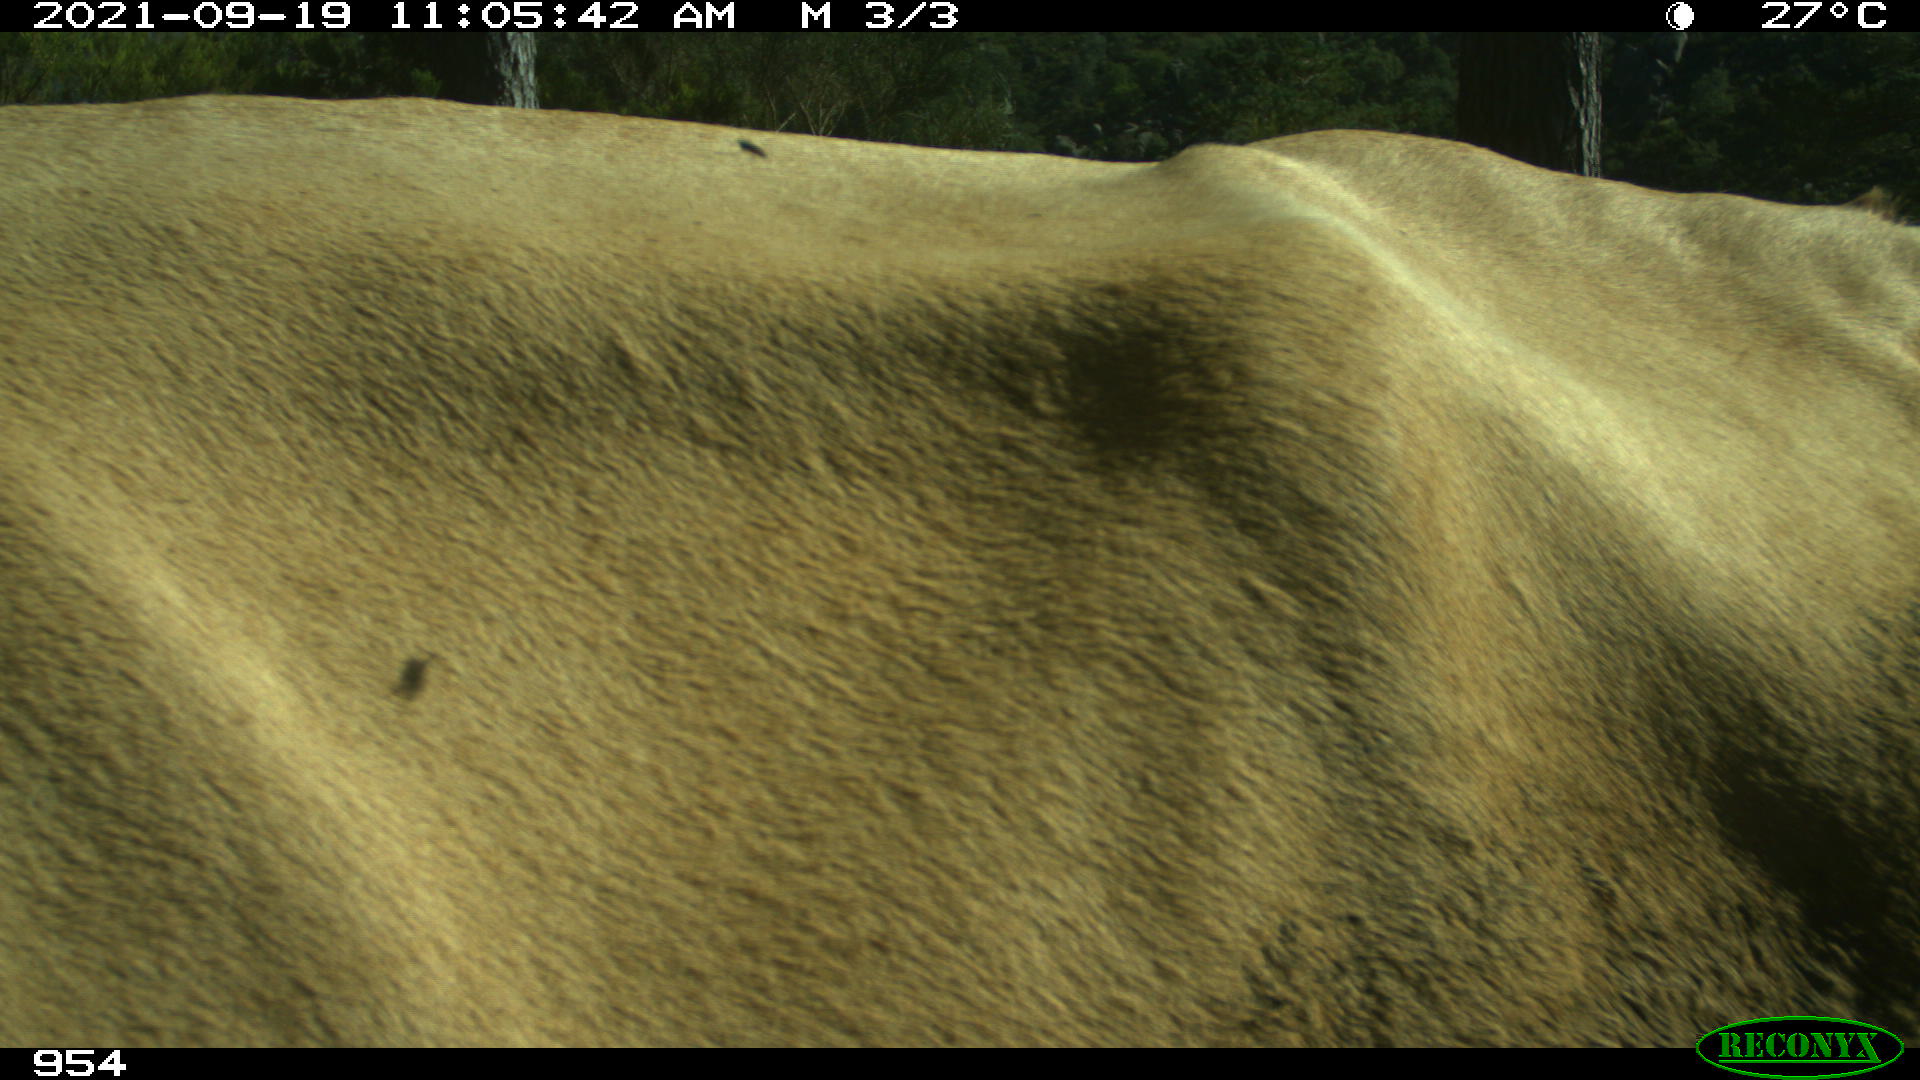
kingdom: Animalia
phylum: Chordata
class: Mammalia
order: Artiodactyla
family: Bovidae
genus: Bos
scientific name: Bos taurus
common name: Domesticated cattle
